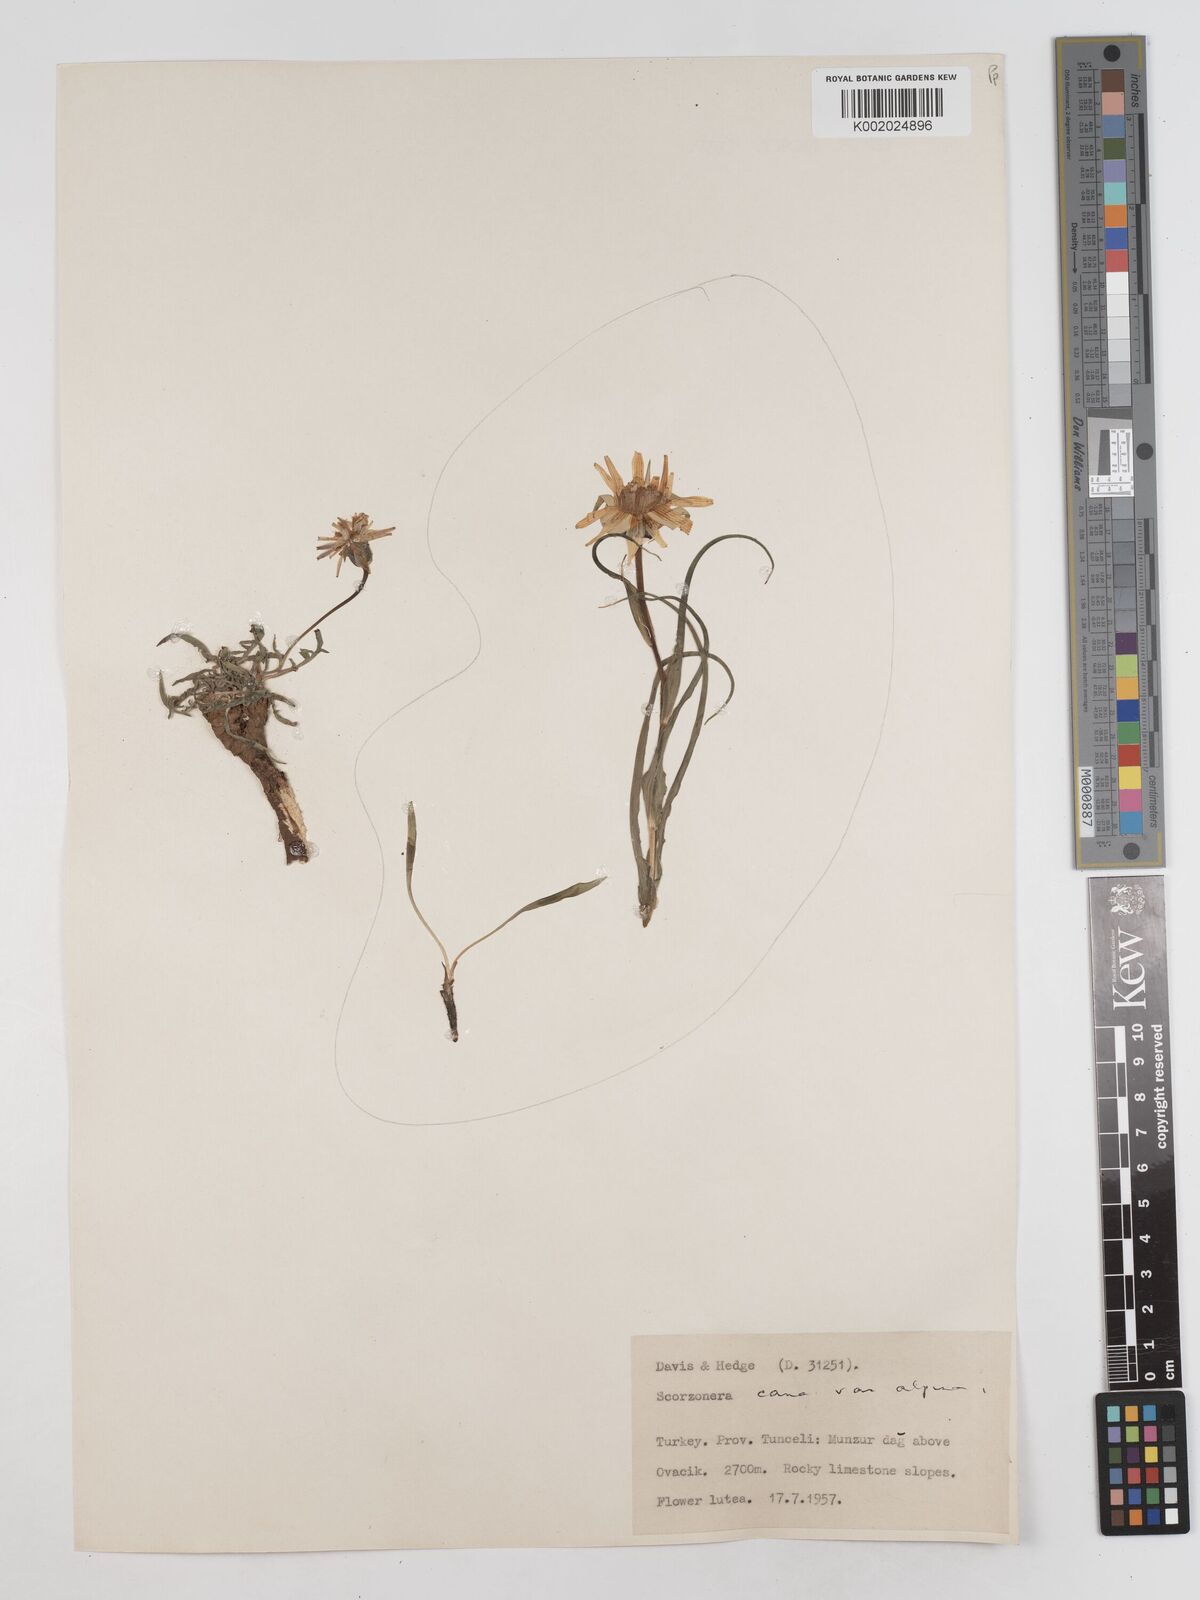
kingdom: Plantae
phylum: Tracheophyta
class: Magnoliopsida
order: Asterales
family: Asteraceae
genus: Scorzonera
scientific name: Scorzonera alpigena
